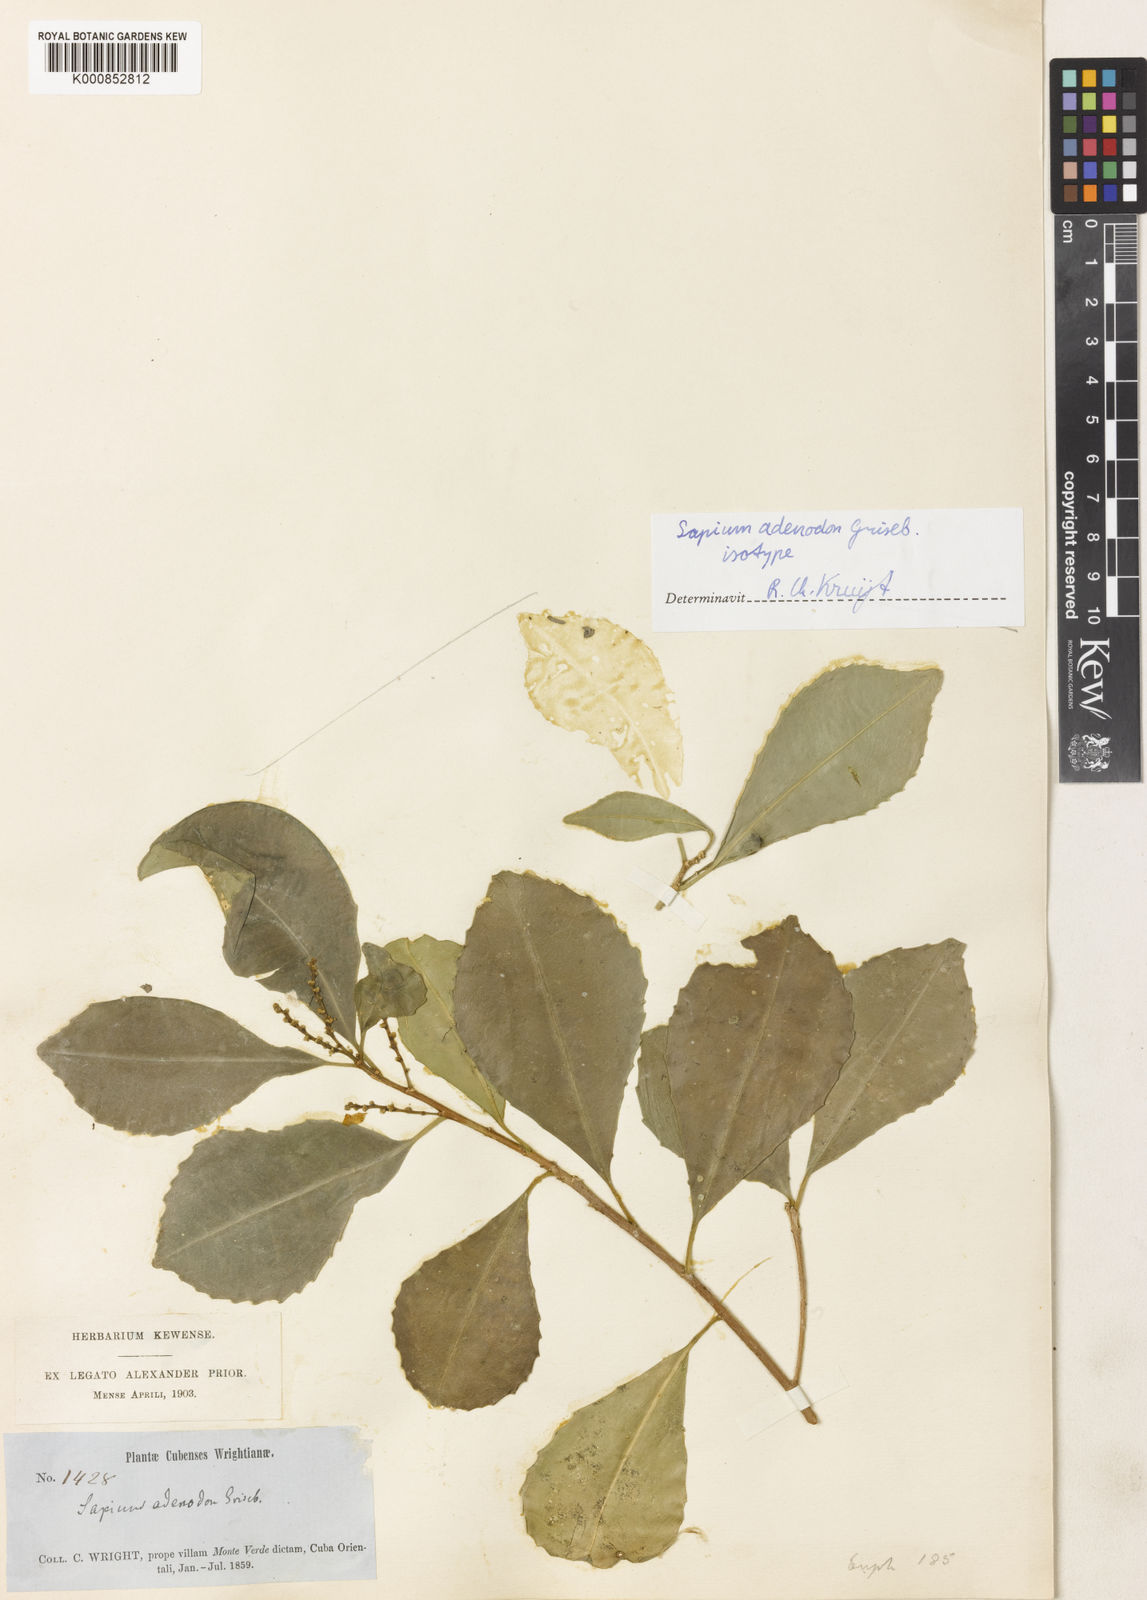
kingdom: Plantae
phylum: Tracheophyta
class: Magnoliopsida
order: Malpighiales
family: Euphorbiaceae
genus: Sapium
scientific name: Sapium adenodon
